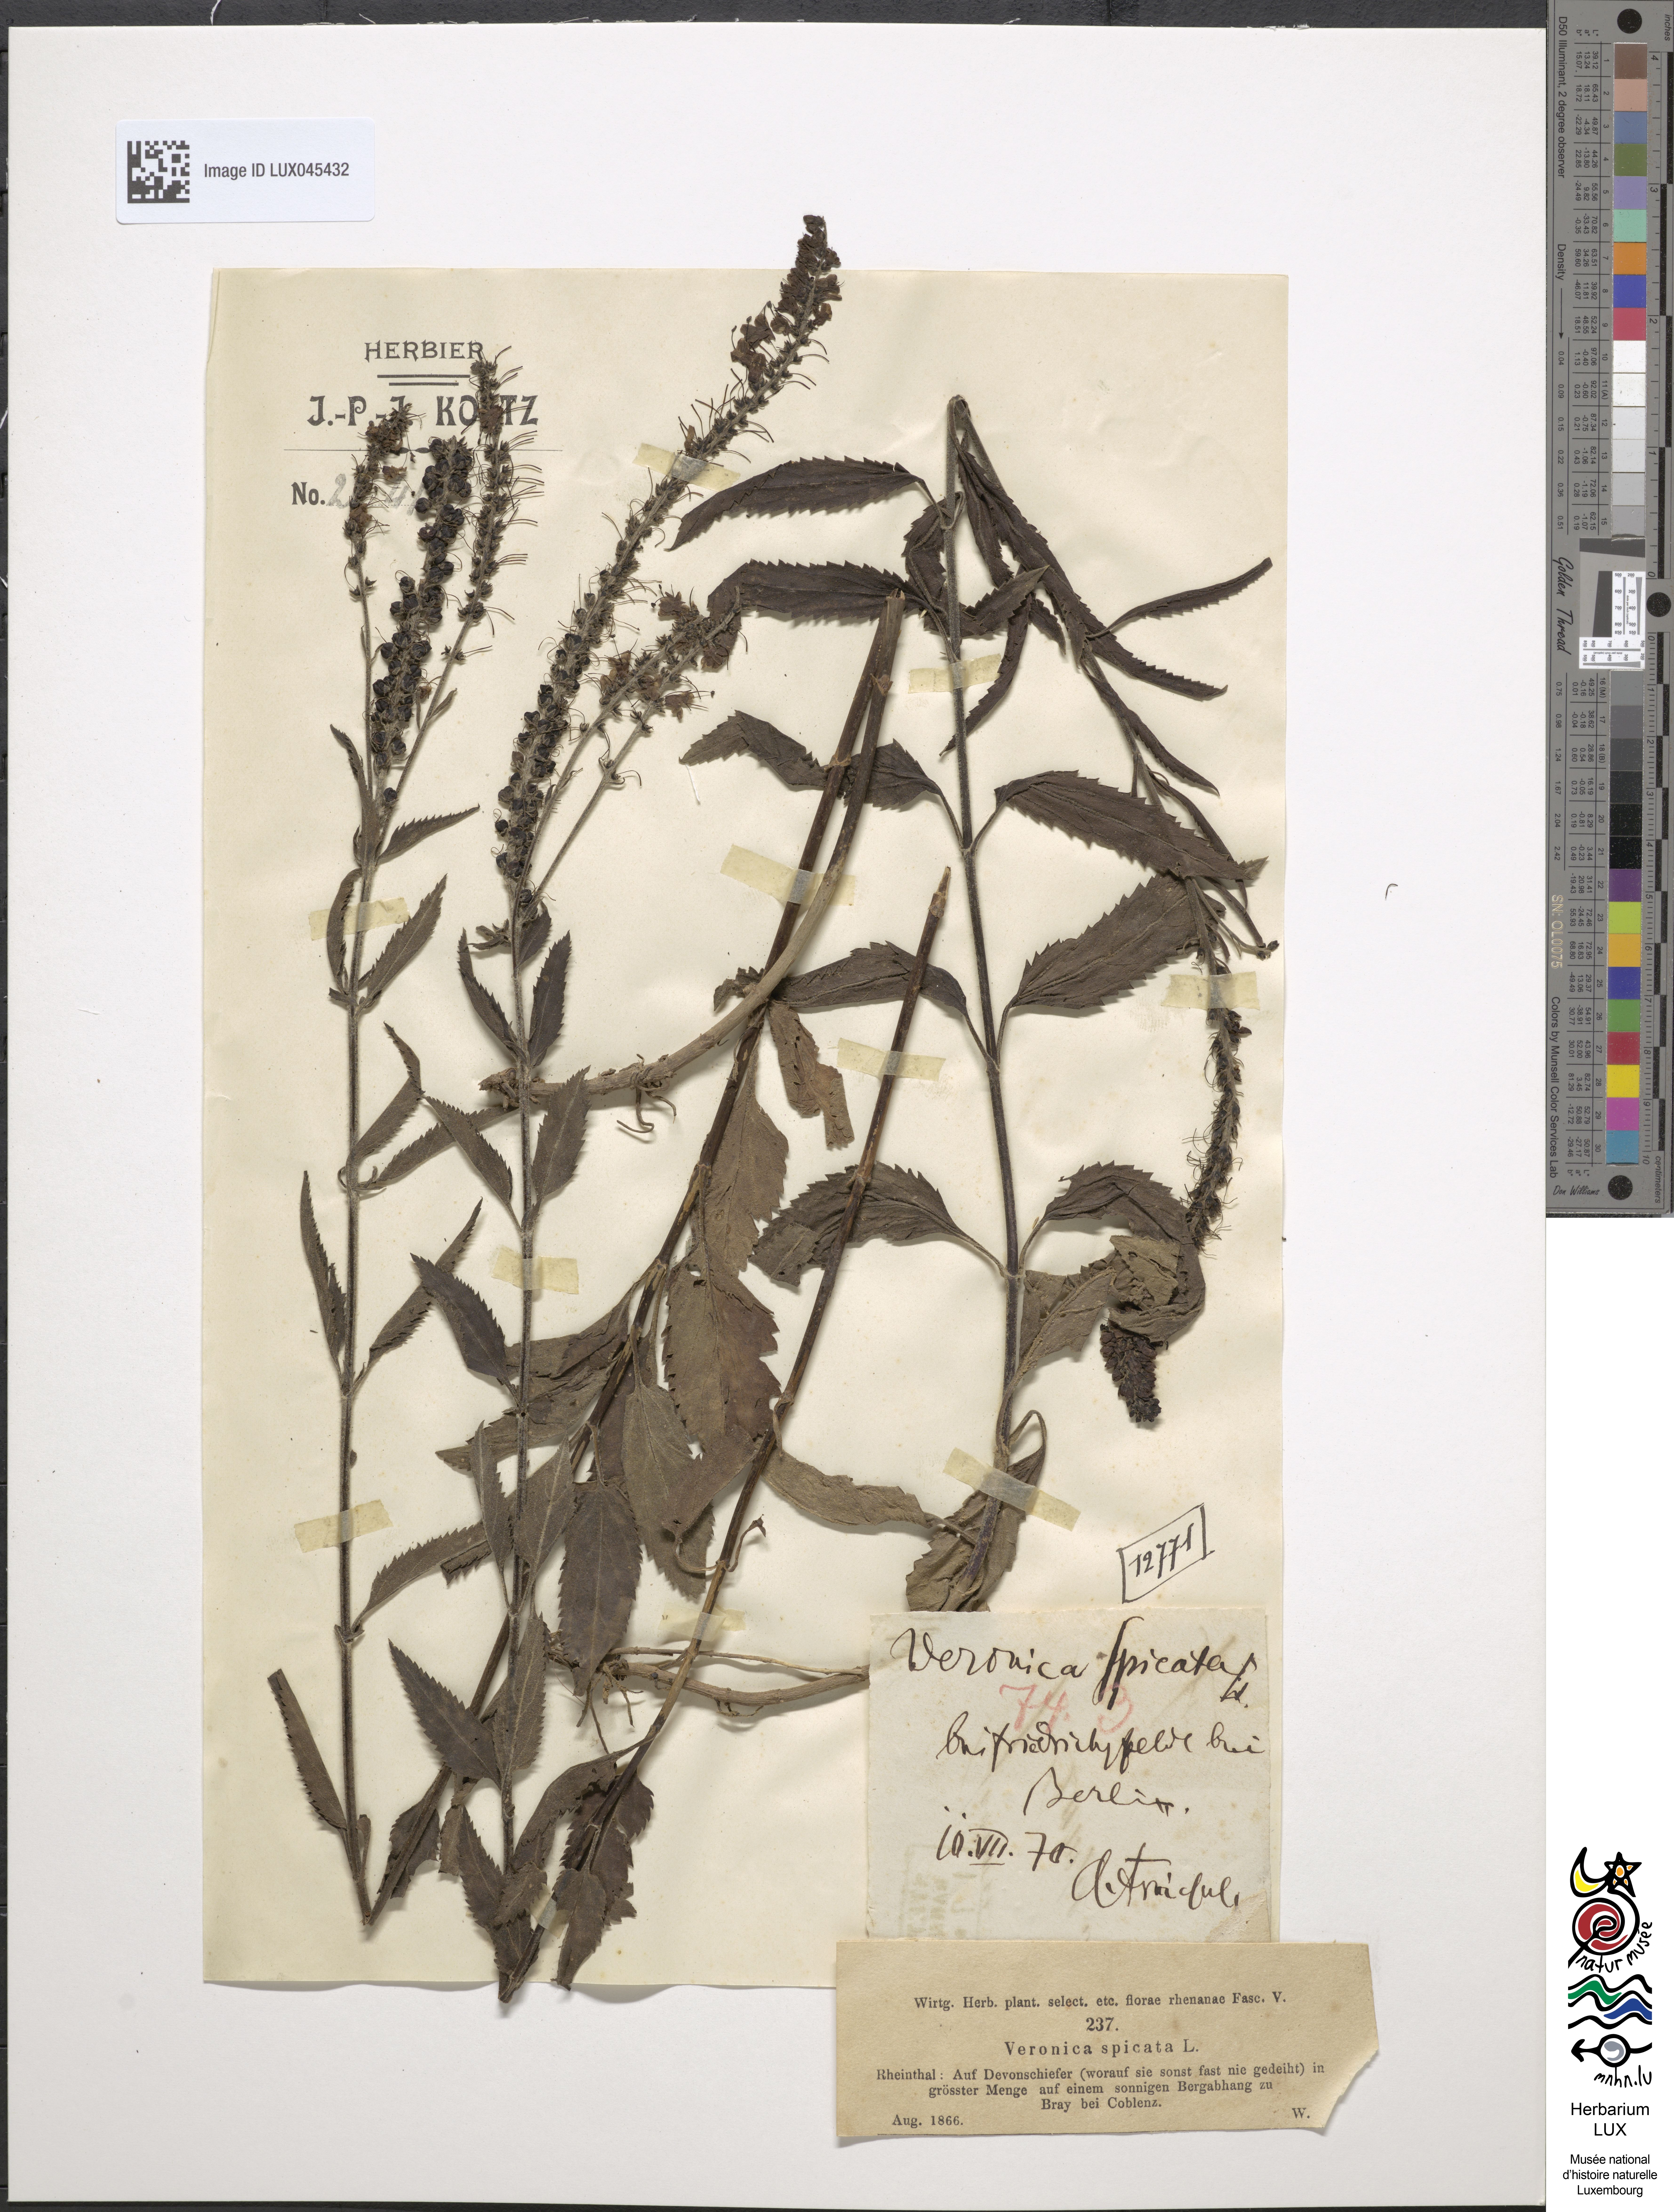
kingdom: Plantae
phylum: Tracheophyta
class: Magnoliopsida
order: Lamiales
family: Plantaginaceae
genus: Veronica
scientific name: Veronica spicata
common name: Spiked speedwell
